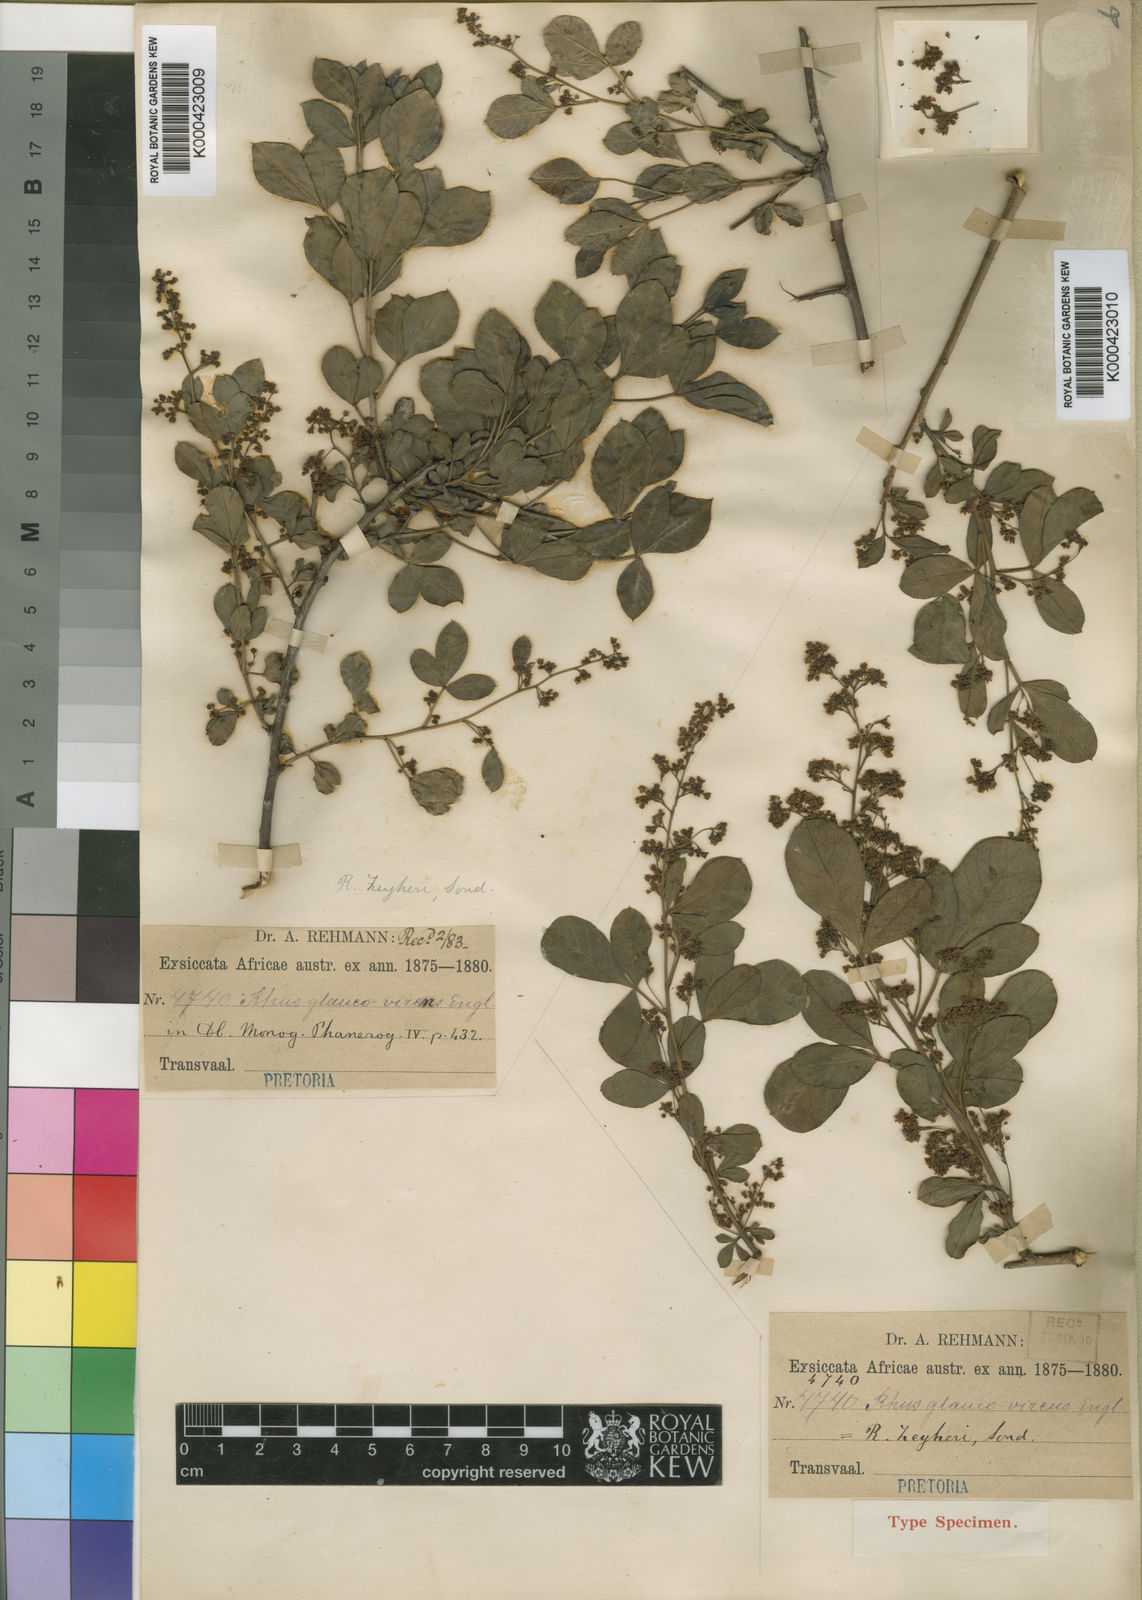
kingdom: Plantae
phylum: Tracheophyta
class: Magnoliopsida
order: Sapindales
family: Anacardiaceae
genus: Searsia
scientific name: Searsia zeyheri
